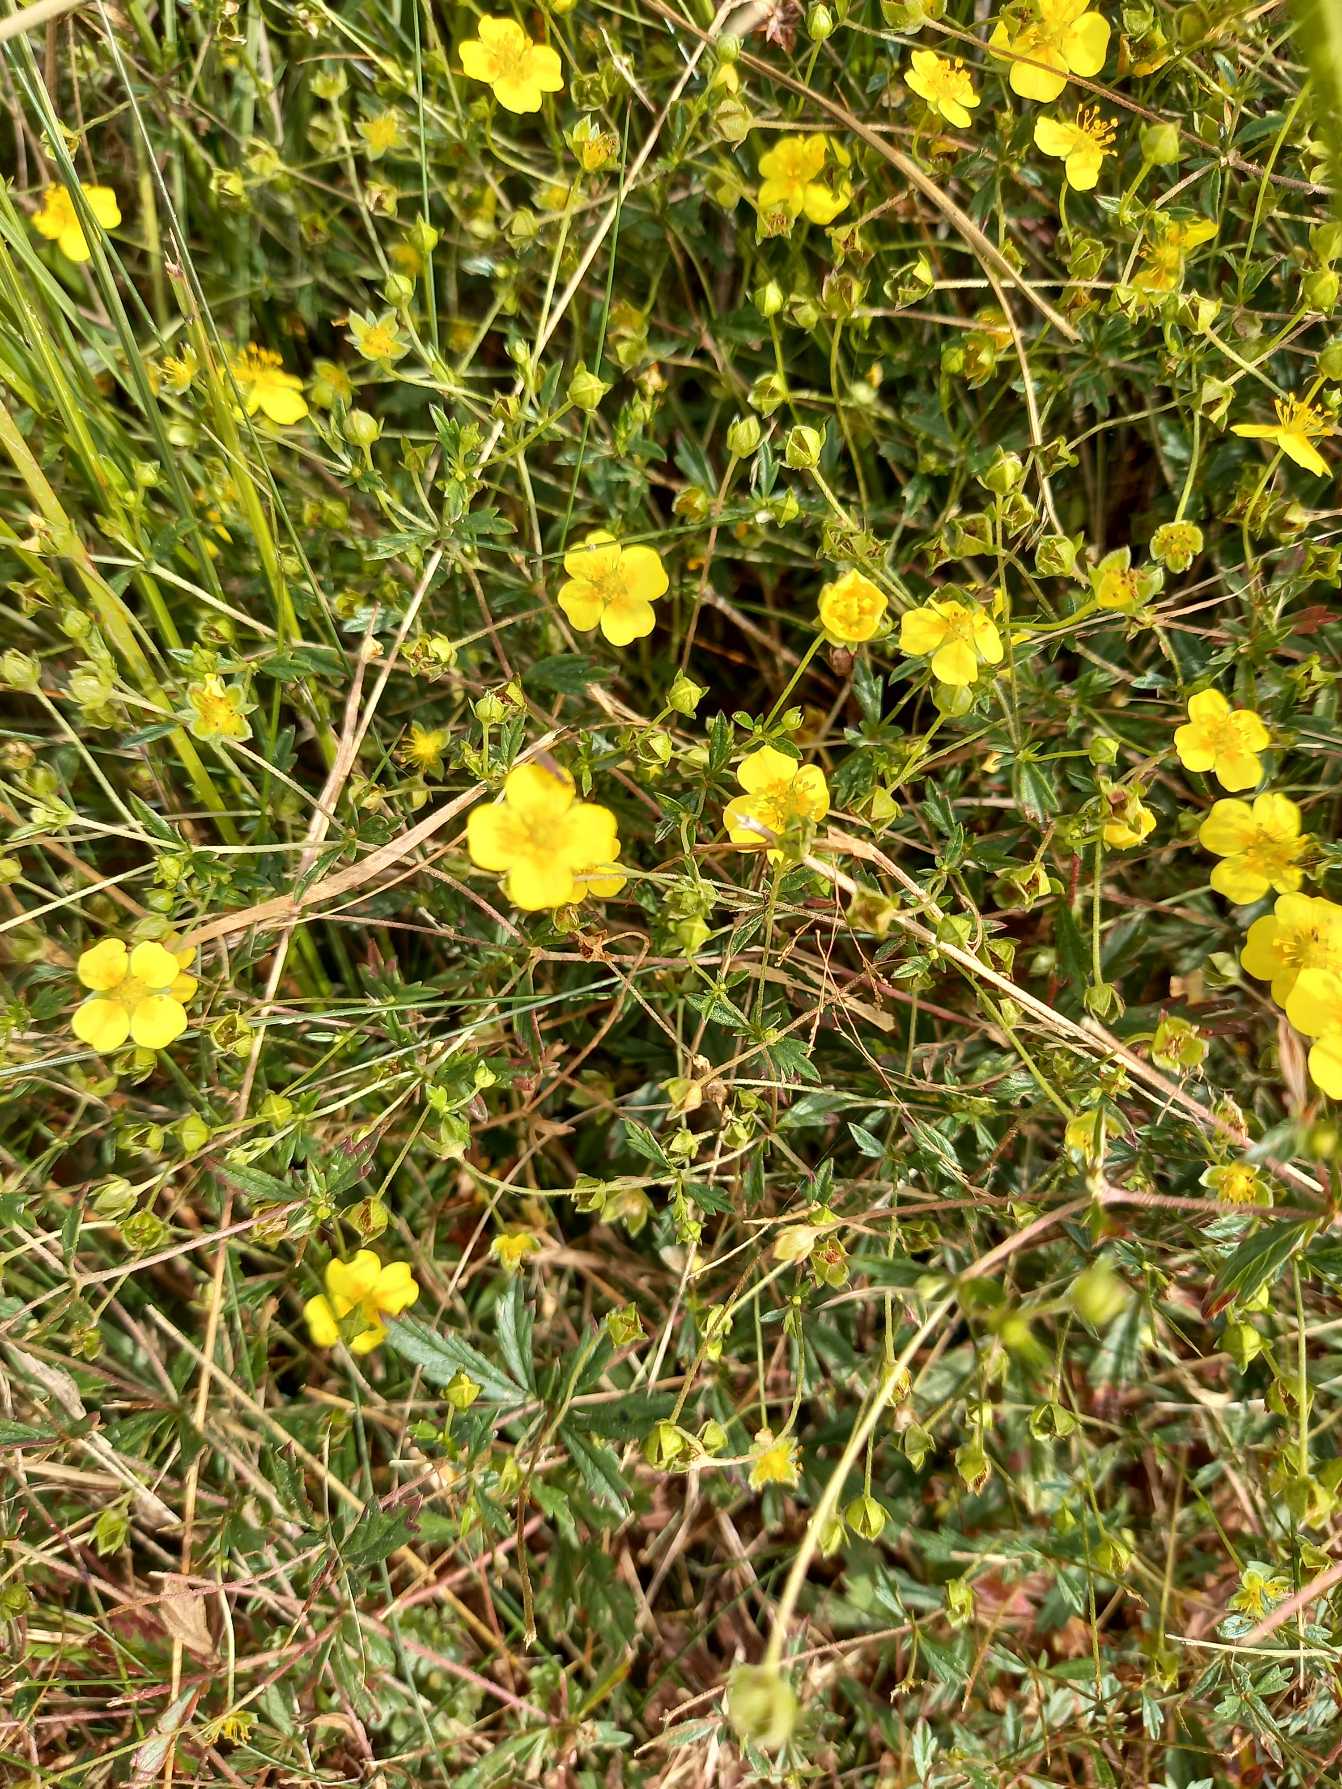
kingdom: Plantae
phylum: Tracheophyta
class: Magnoliopsida
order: Rosales
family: Rosaceae
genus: Potentilla
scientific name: Potentilla erecta
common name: Tormentil
